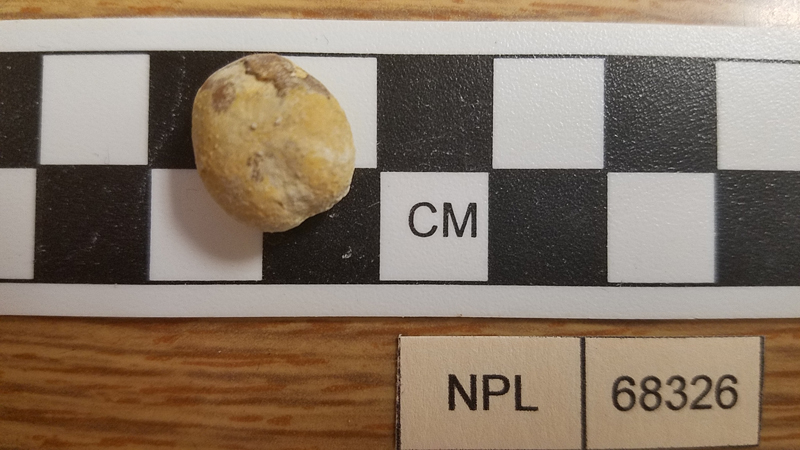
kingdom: Animalia
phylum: Echinodermata
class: Echinoidea
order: Spatangoida
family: Toxasteridae
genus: Heteraster
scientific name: Heteraster
